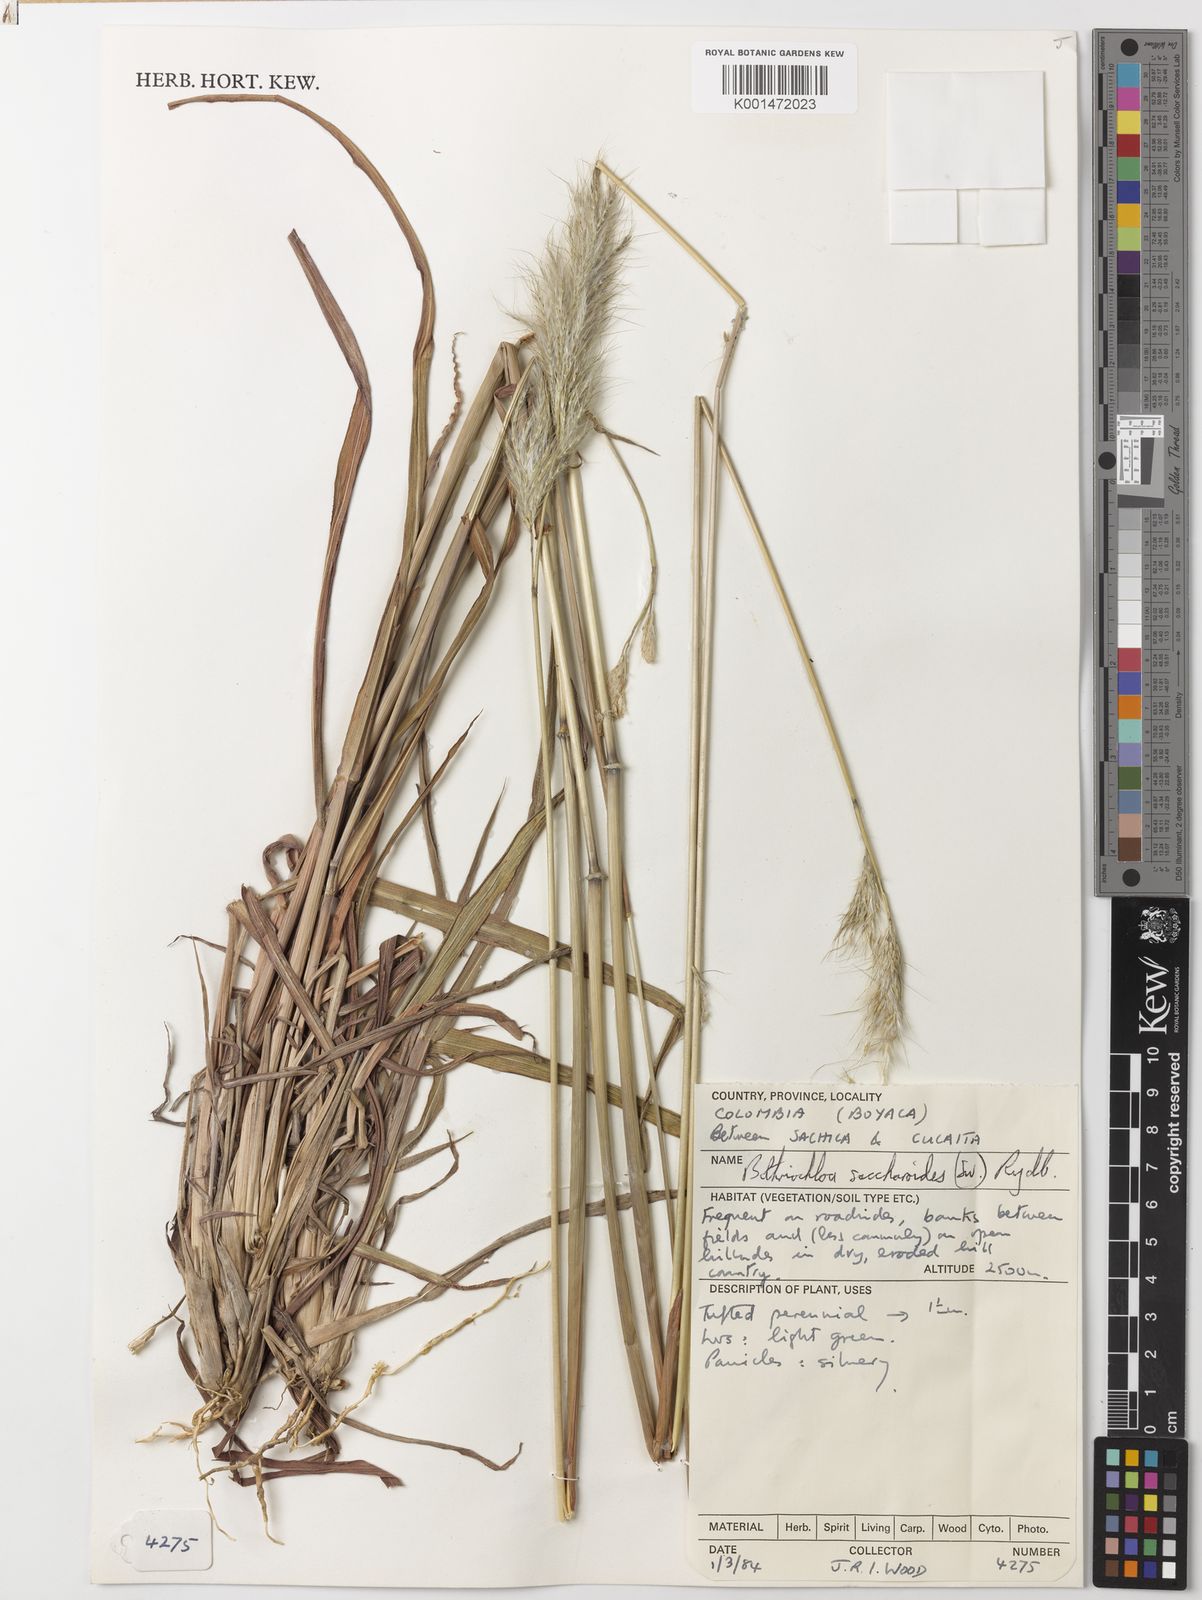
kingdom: Plantae
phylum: Tracheophyta
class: Liliopsida
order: Poales
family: Poaceae
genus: Bothriochloa
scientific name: Bothriochloa saccharoides
